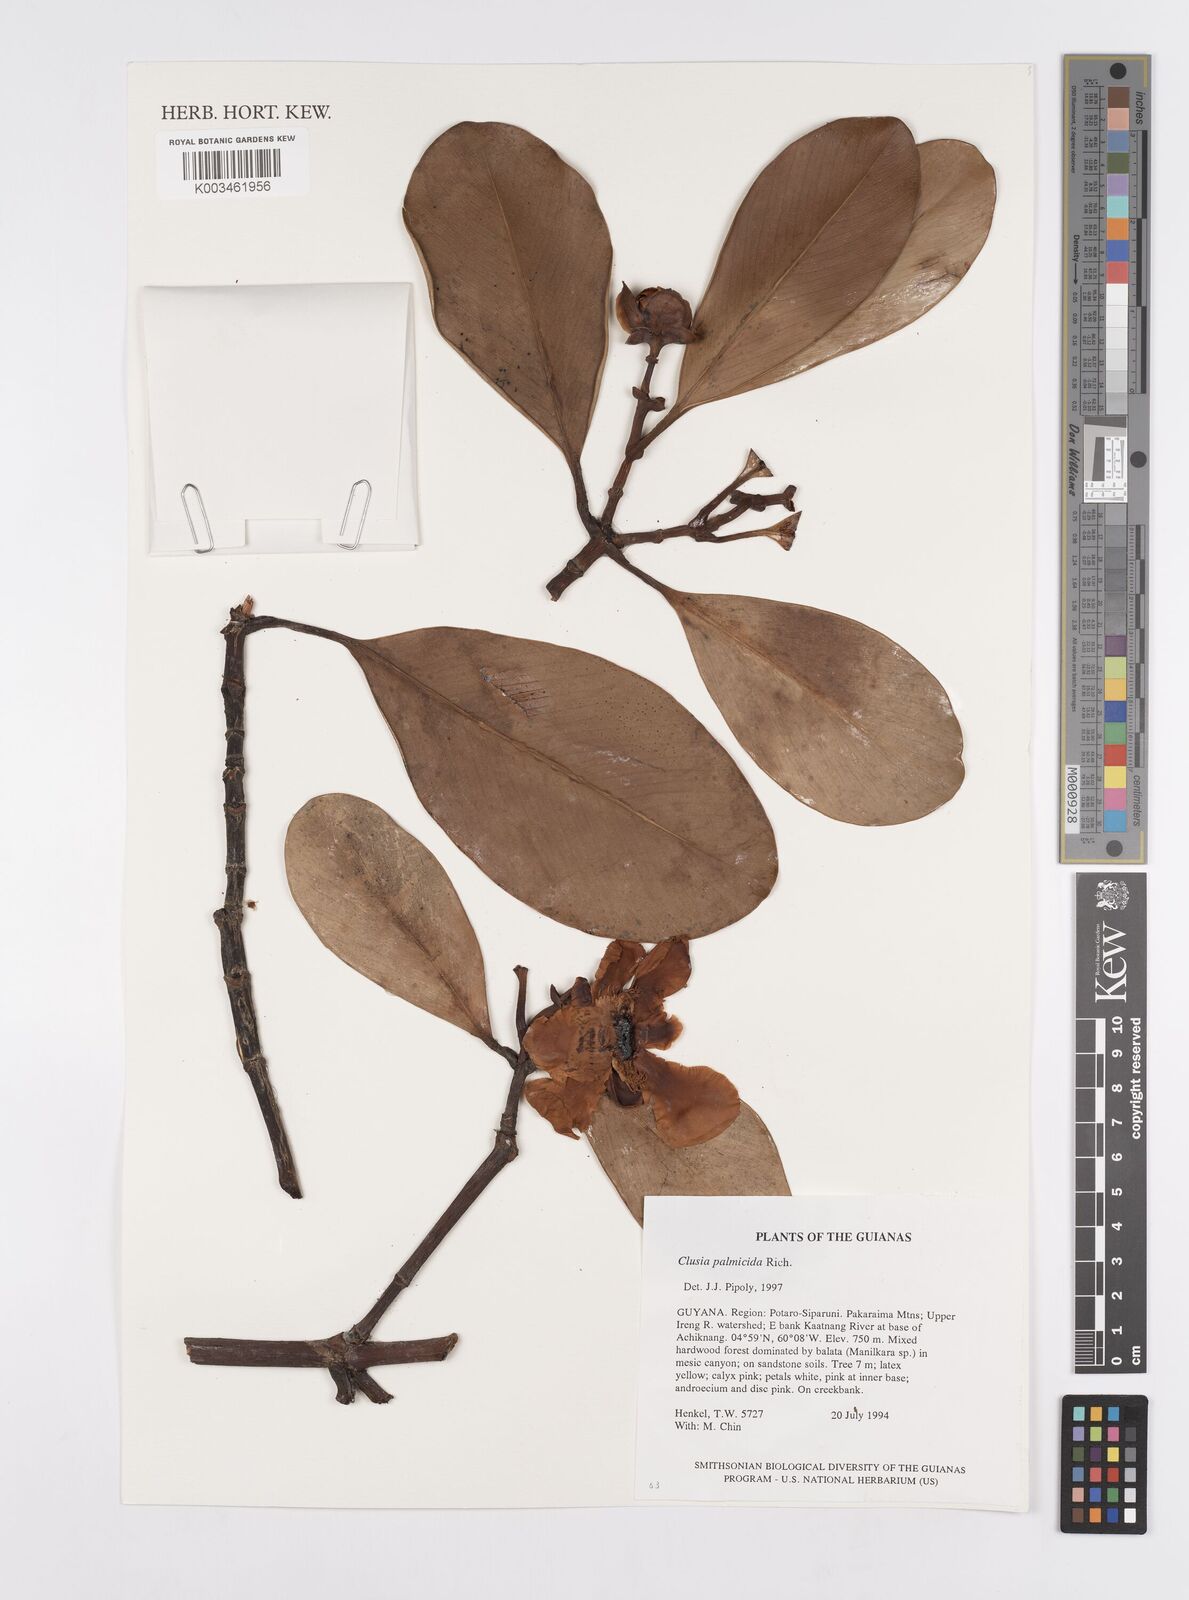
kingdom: Plantae
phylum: Tracheophyta
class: Magnoliopsida
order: Malpighiales
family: Clusiaceae
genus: Clusia
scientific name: Clusia palmicida
